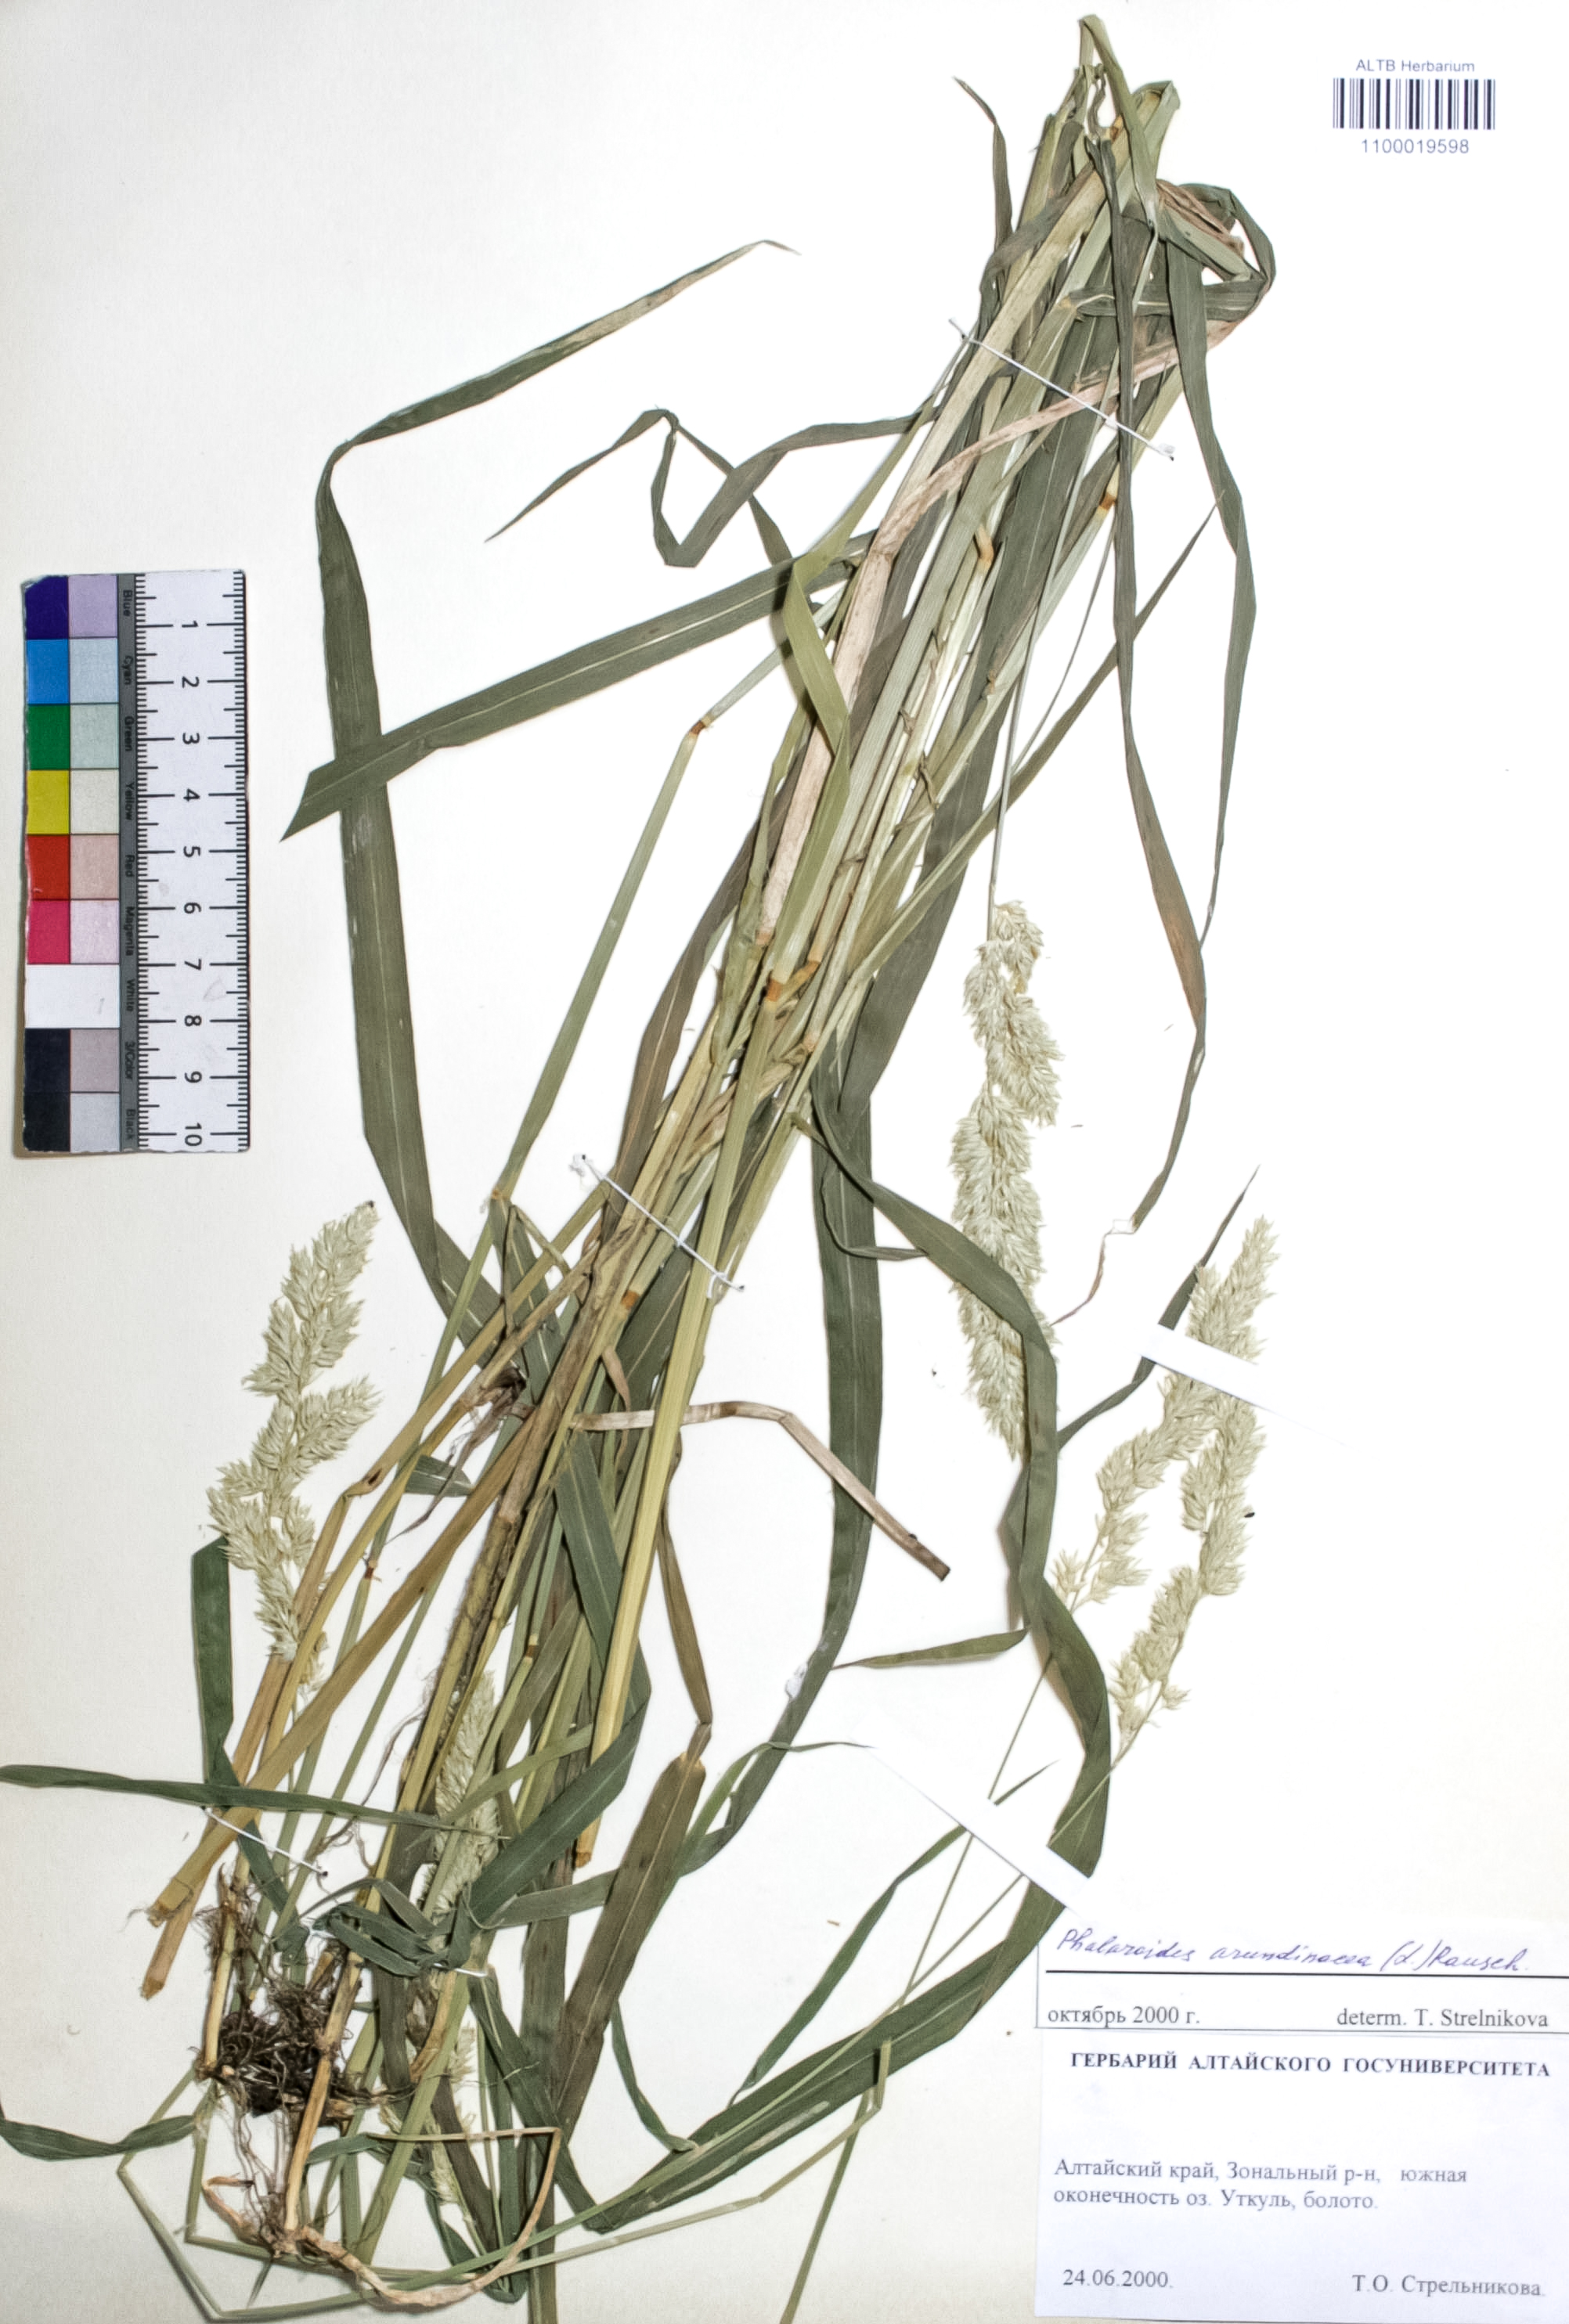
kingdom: Plantae
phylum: Tracheophyta
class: Liliopsida
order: Poales
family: Poaceae
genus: Phalaris
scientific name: Phalaris arundinacea
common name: Reed canary-grass
